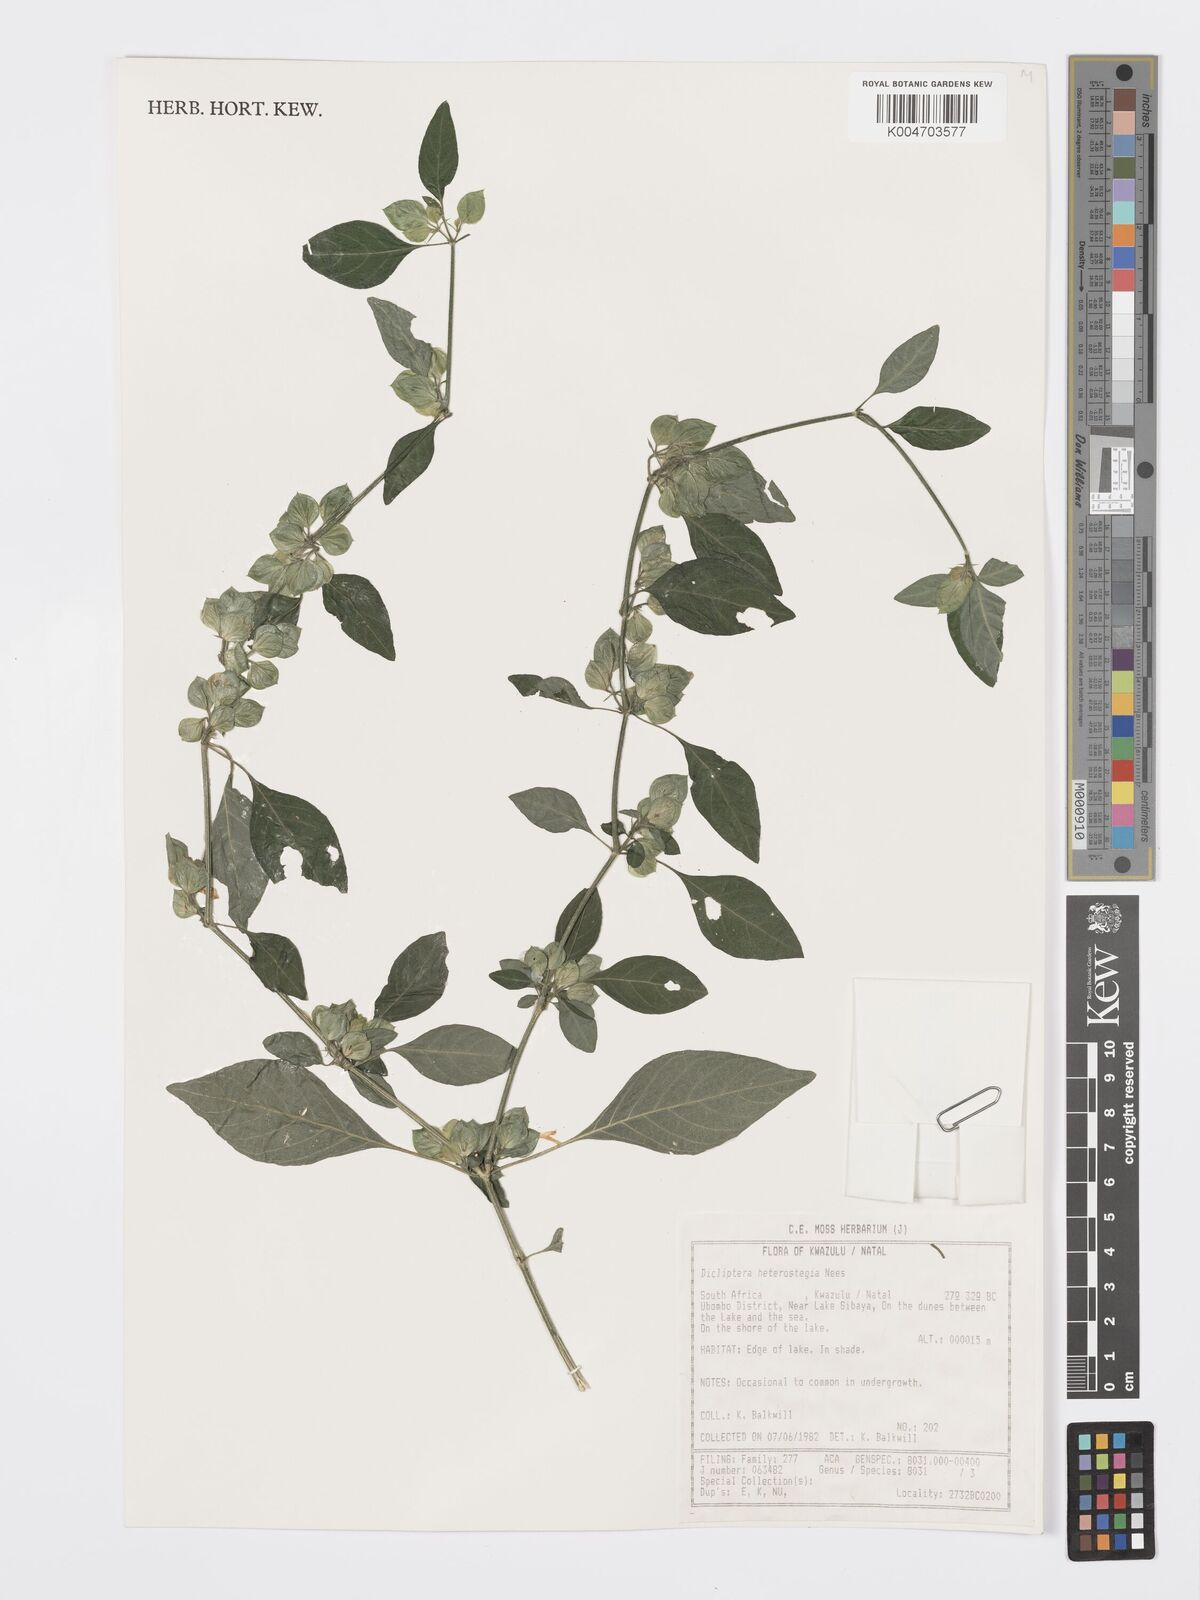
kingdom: Plantae
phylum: Tracheophyta
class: Magnoliopsida
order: Lamiales
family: Acanthaceae
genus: Dicliptera
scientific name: Dicliptera heterostegia
